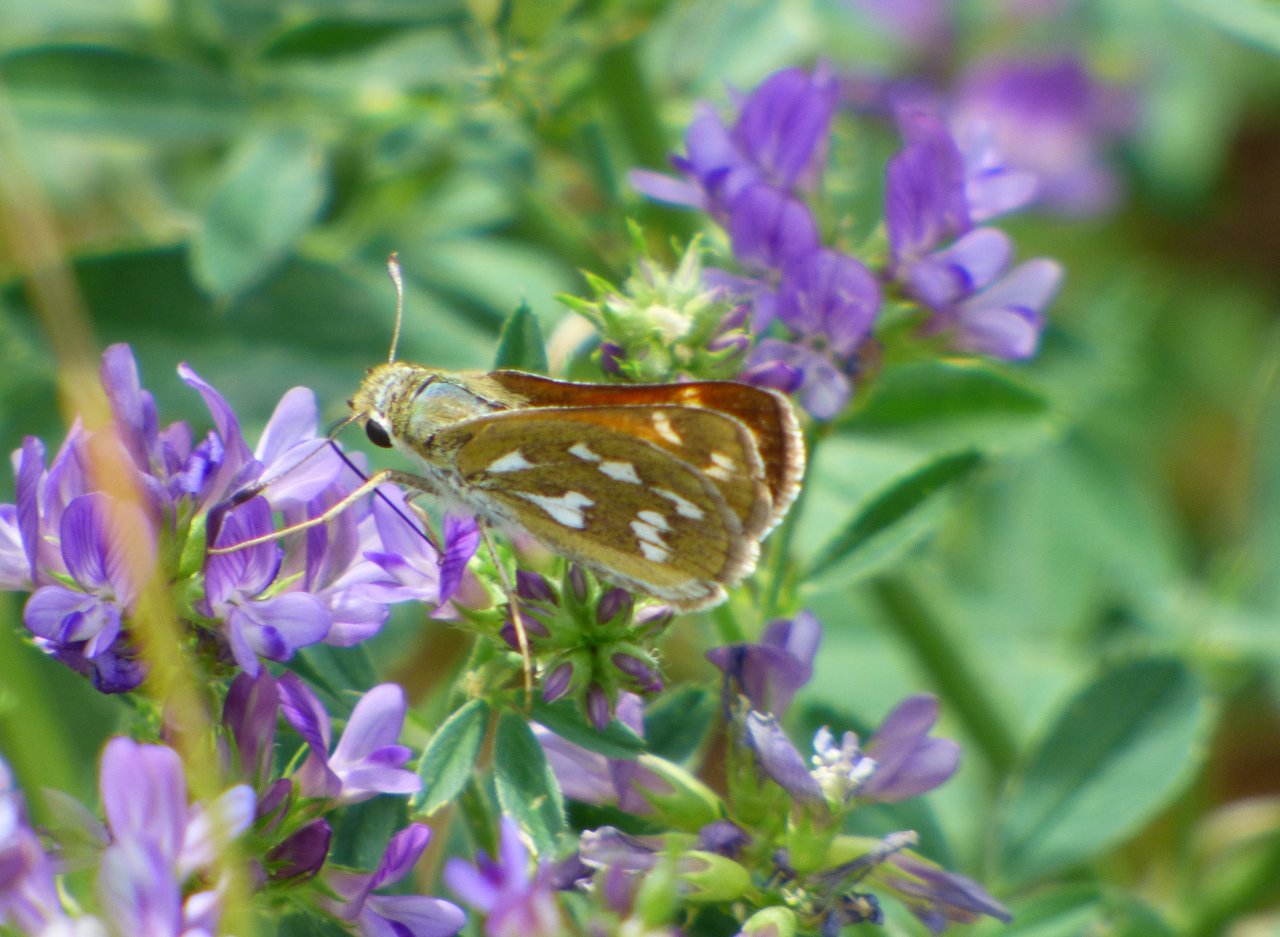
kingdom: Animalia
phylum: Arthropoda
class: Insecta
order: Lepidoptera
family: Hesperiidae
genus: Hesperia
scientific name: Hesperia viridis
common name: Green Skipper
